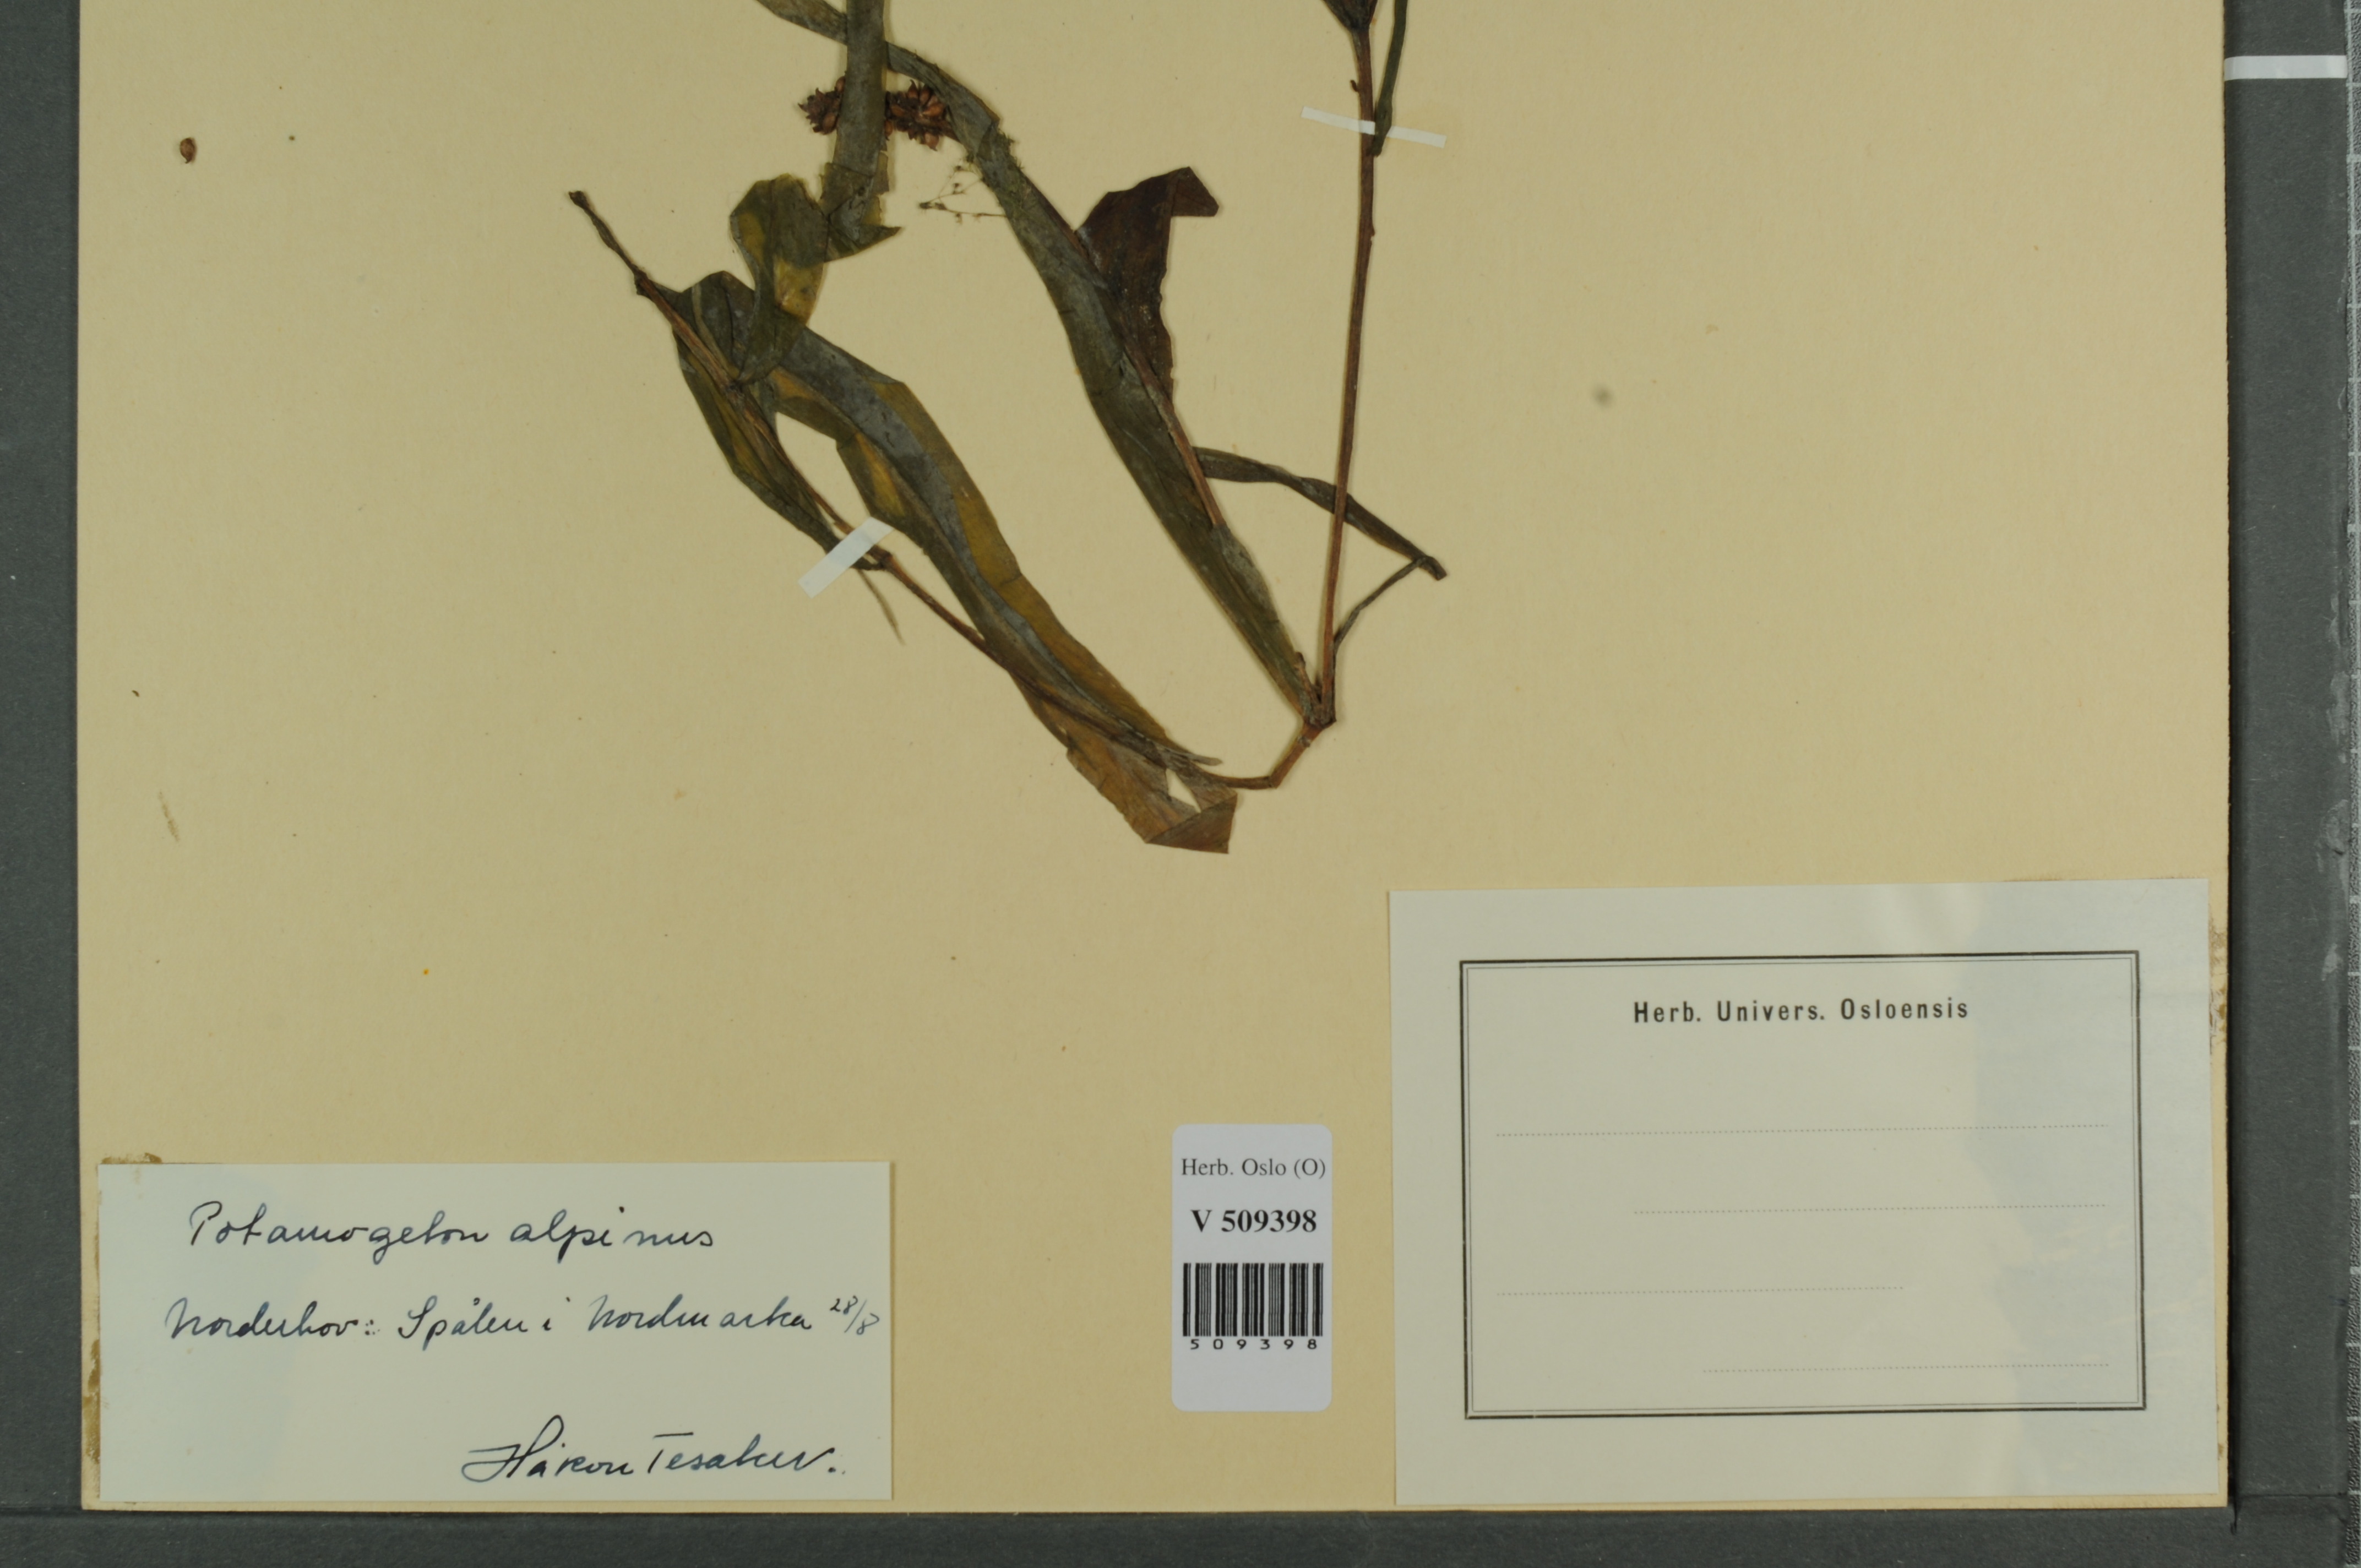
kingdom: Plantae
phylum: Tracheophyta
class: Liliopsida
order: Alismatales
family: Potamogetonaceae
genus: Potamogeton
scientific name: Potamogeton alpinus
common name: Red pondweed
